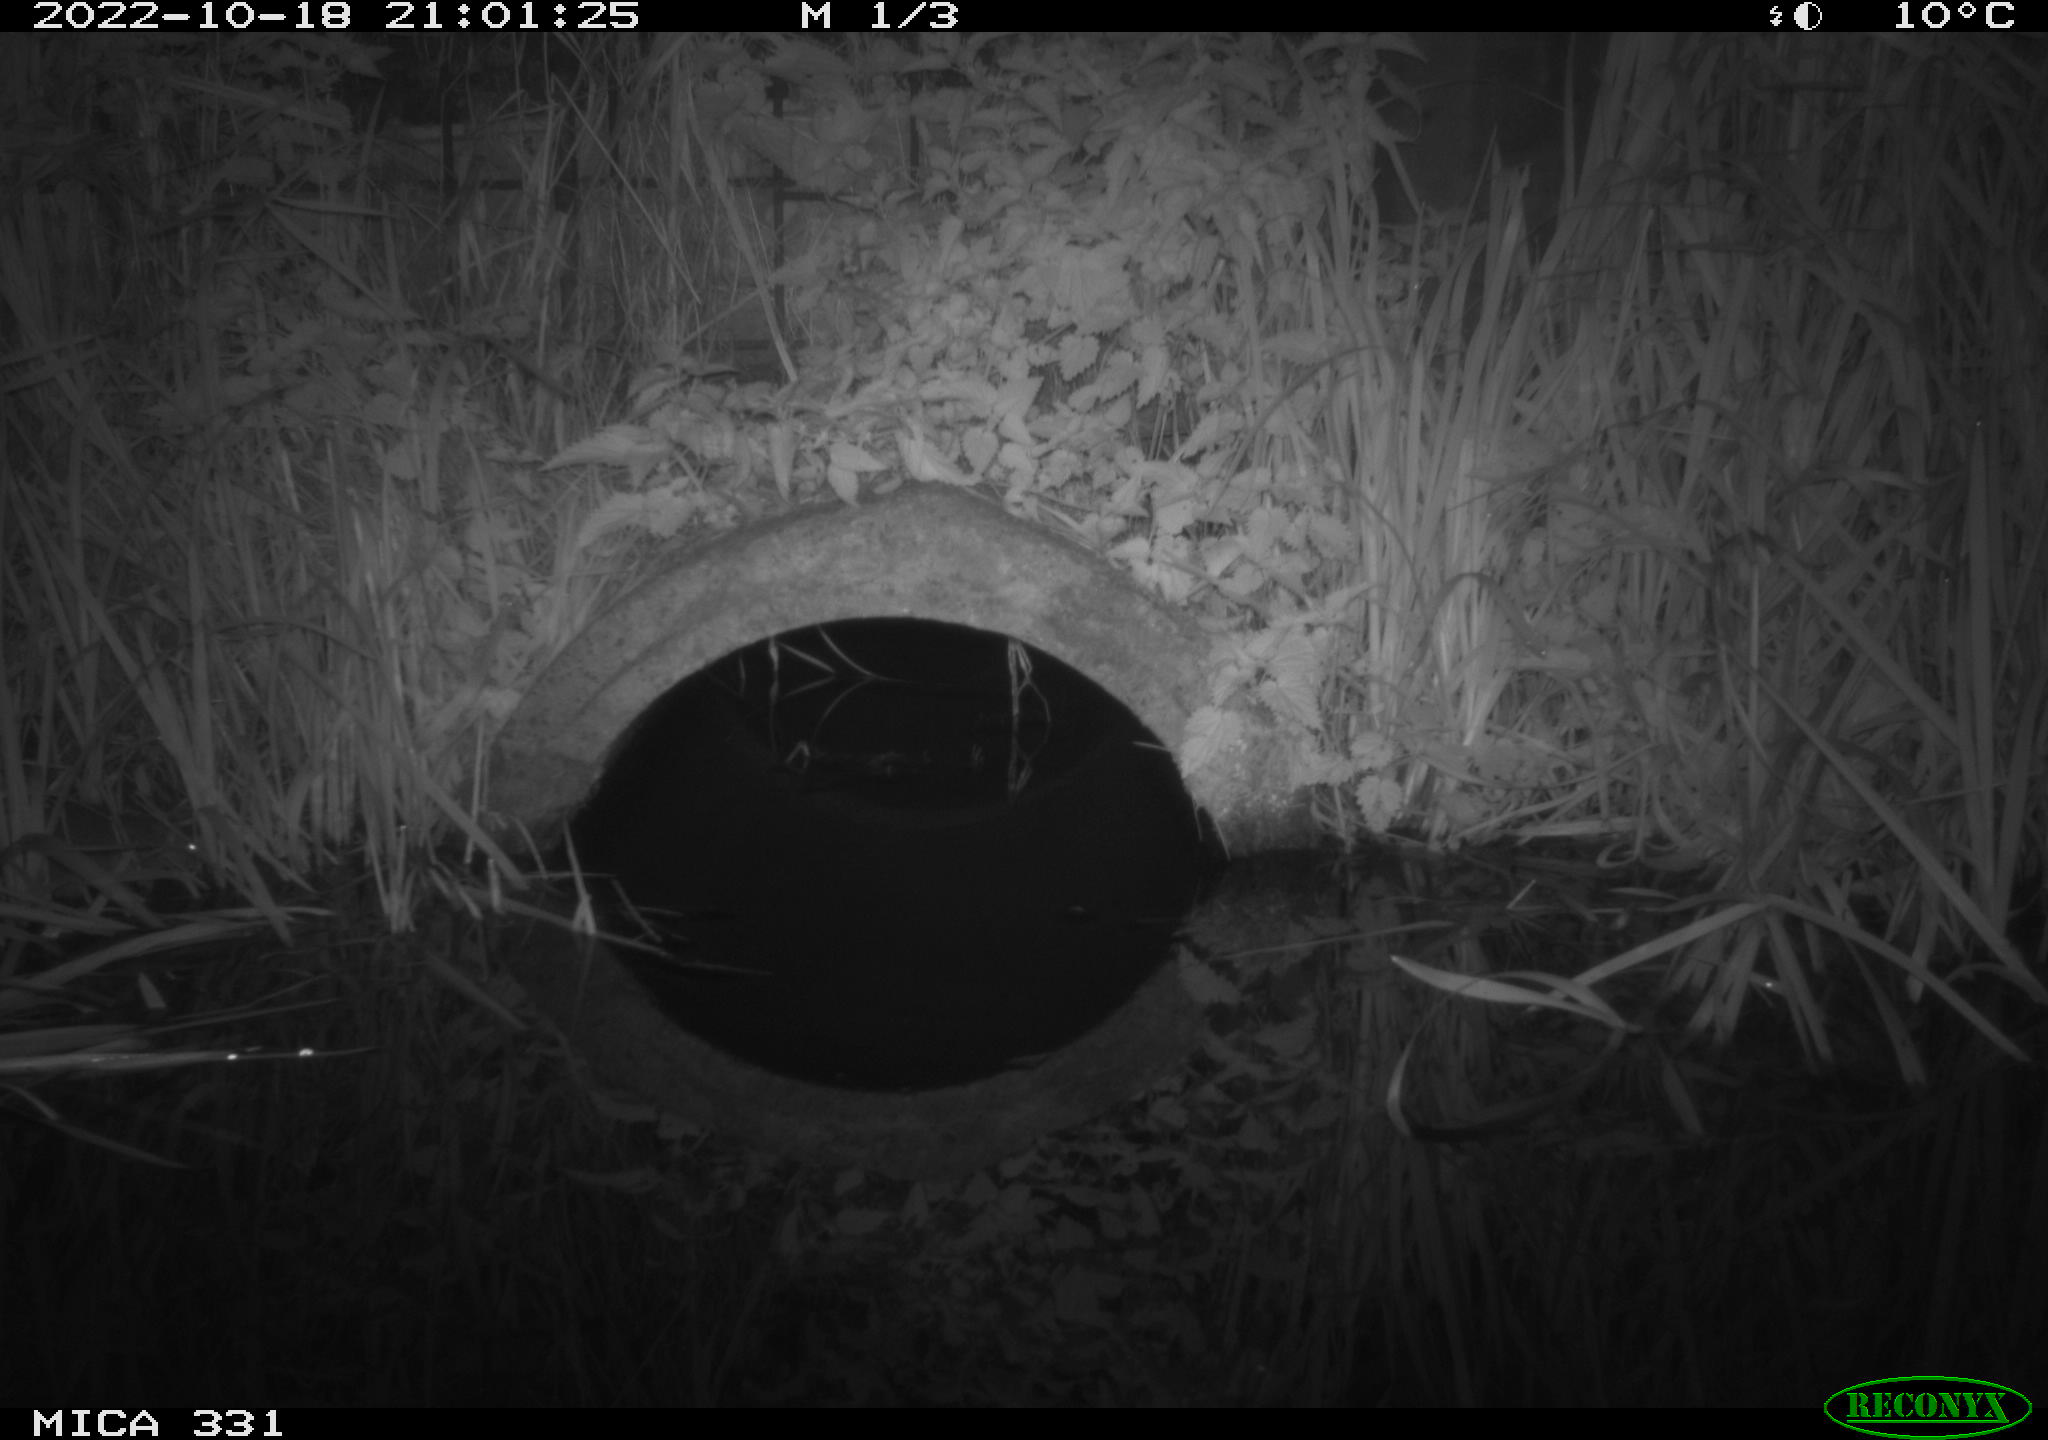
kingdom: Animalia
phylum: Chordata
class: Mammalia
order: Rodentia
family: Muridae
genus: Rattus
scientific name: Rattus norvegicus
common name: Brown rat
